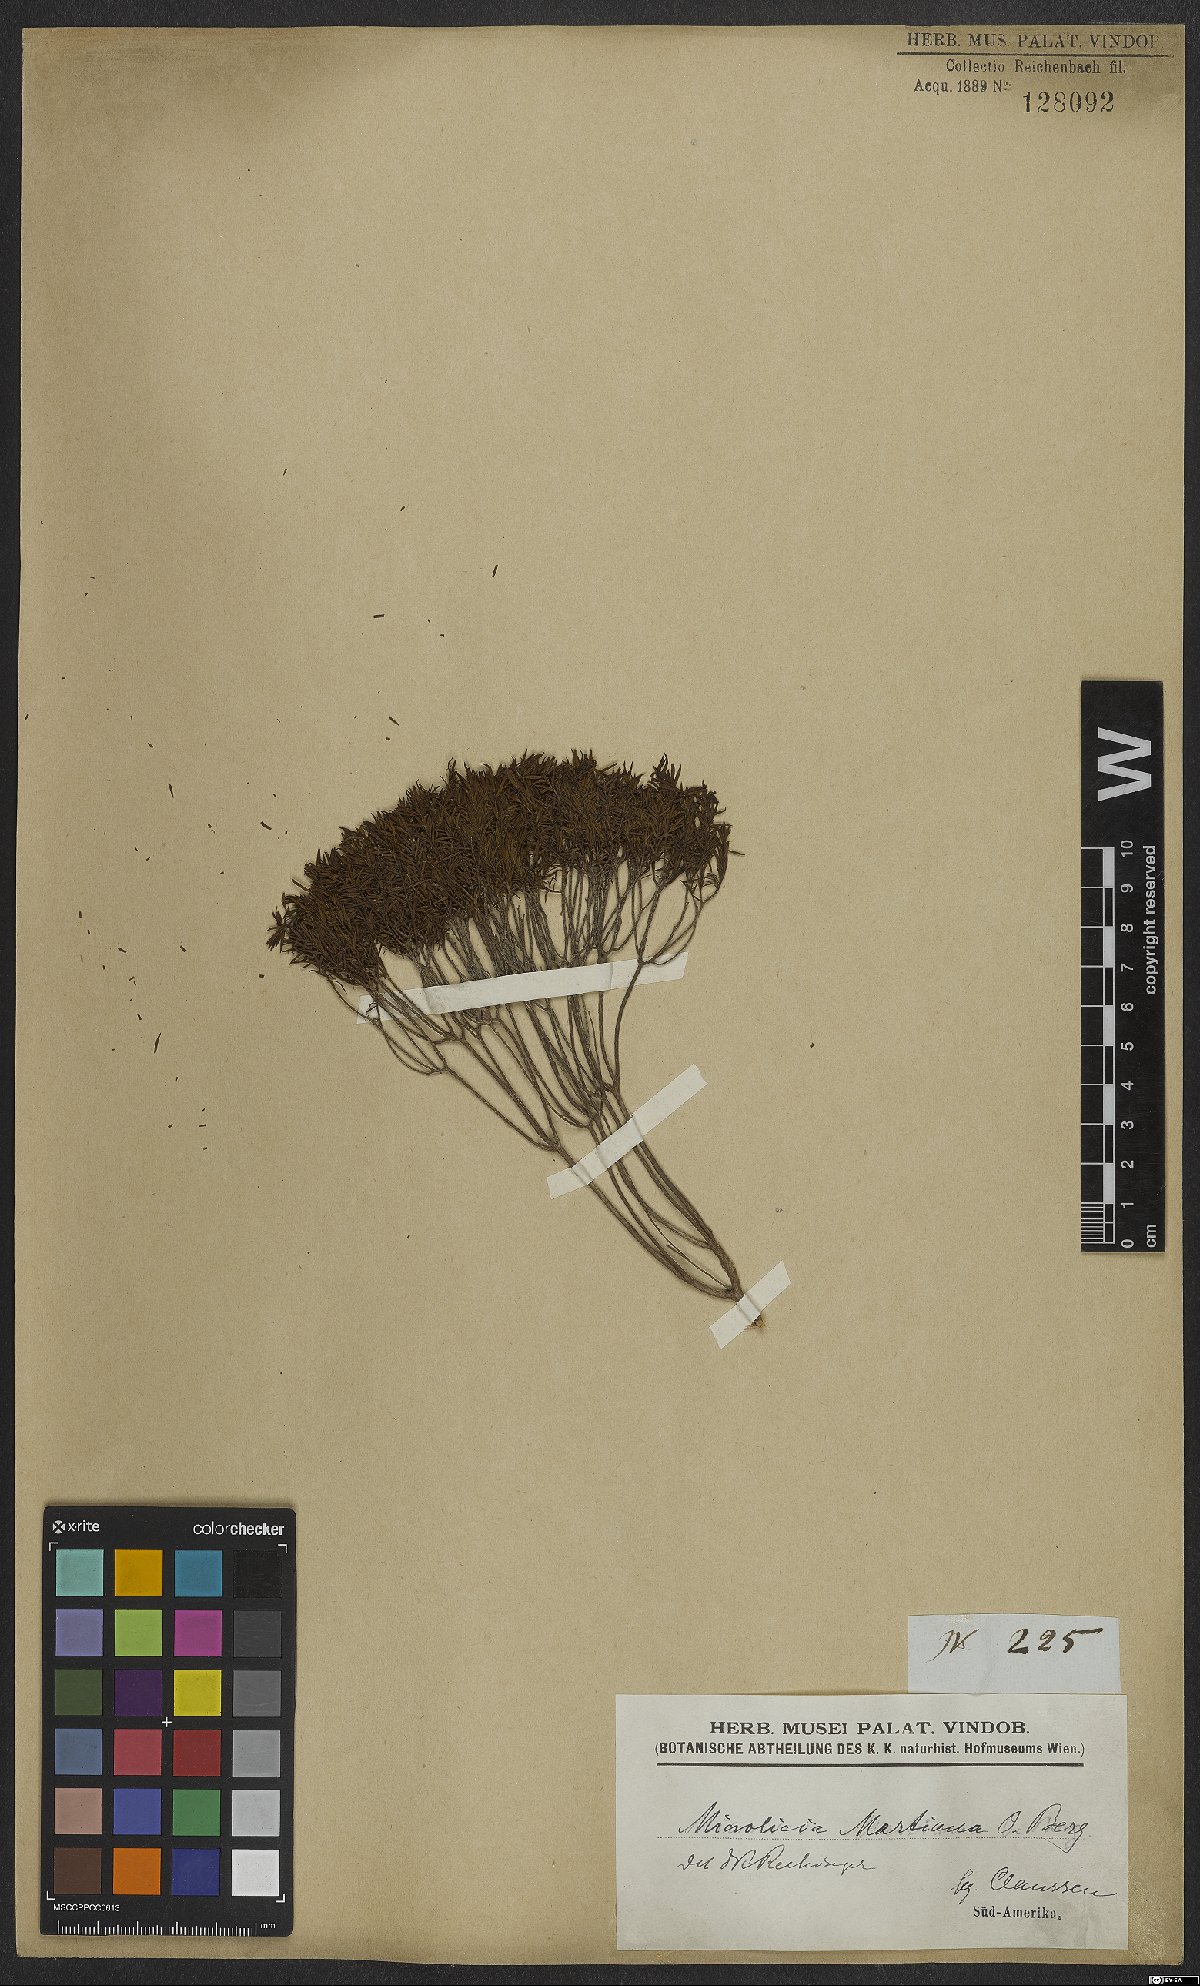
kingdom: Plantae
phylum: Tracheophyta
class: Magnoliopsida
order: Myrtales
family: Melastomataceae
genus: Microlicia
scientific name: Microlicia martiana
